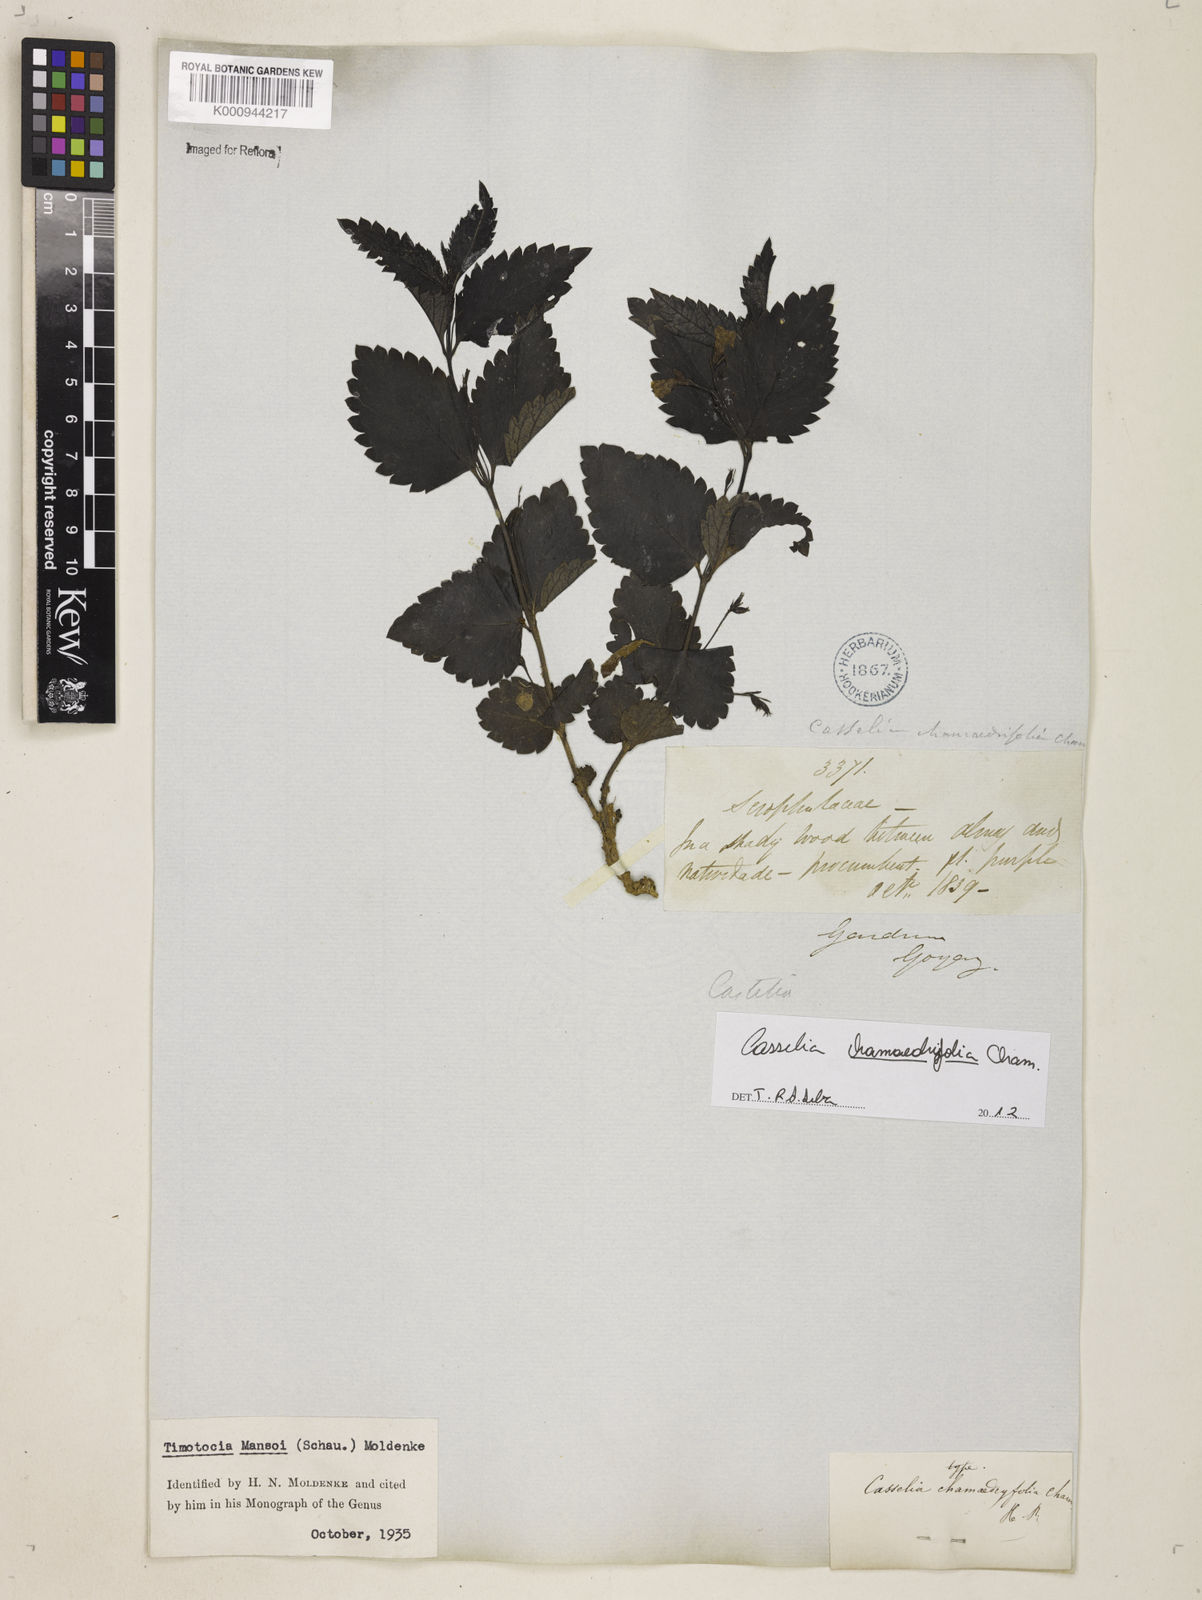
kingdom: Plantae
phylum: Tracheophyta
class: Magnoliopsida
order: Lamiales
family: Verbenaceae
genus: Casselia
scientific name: Casselia
